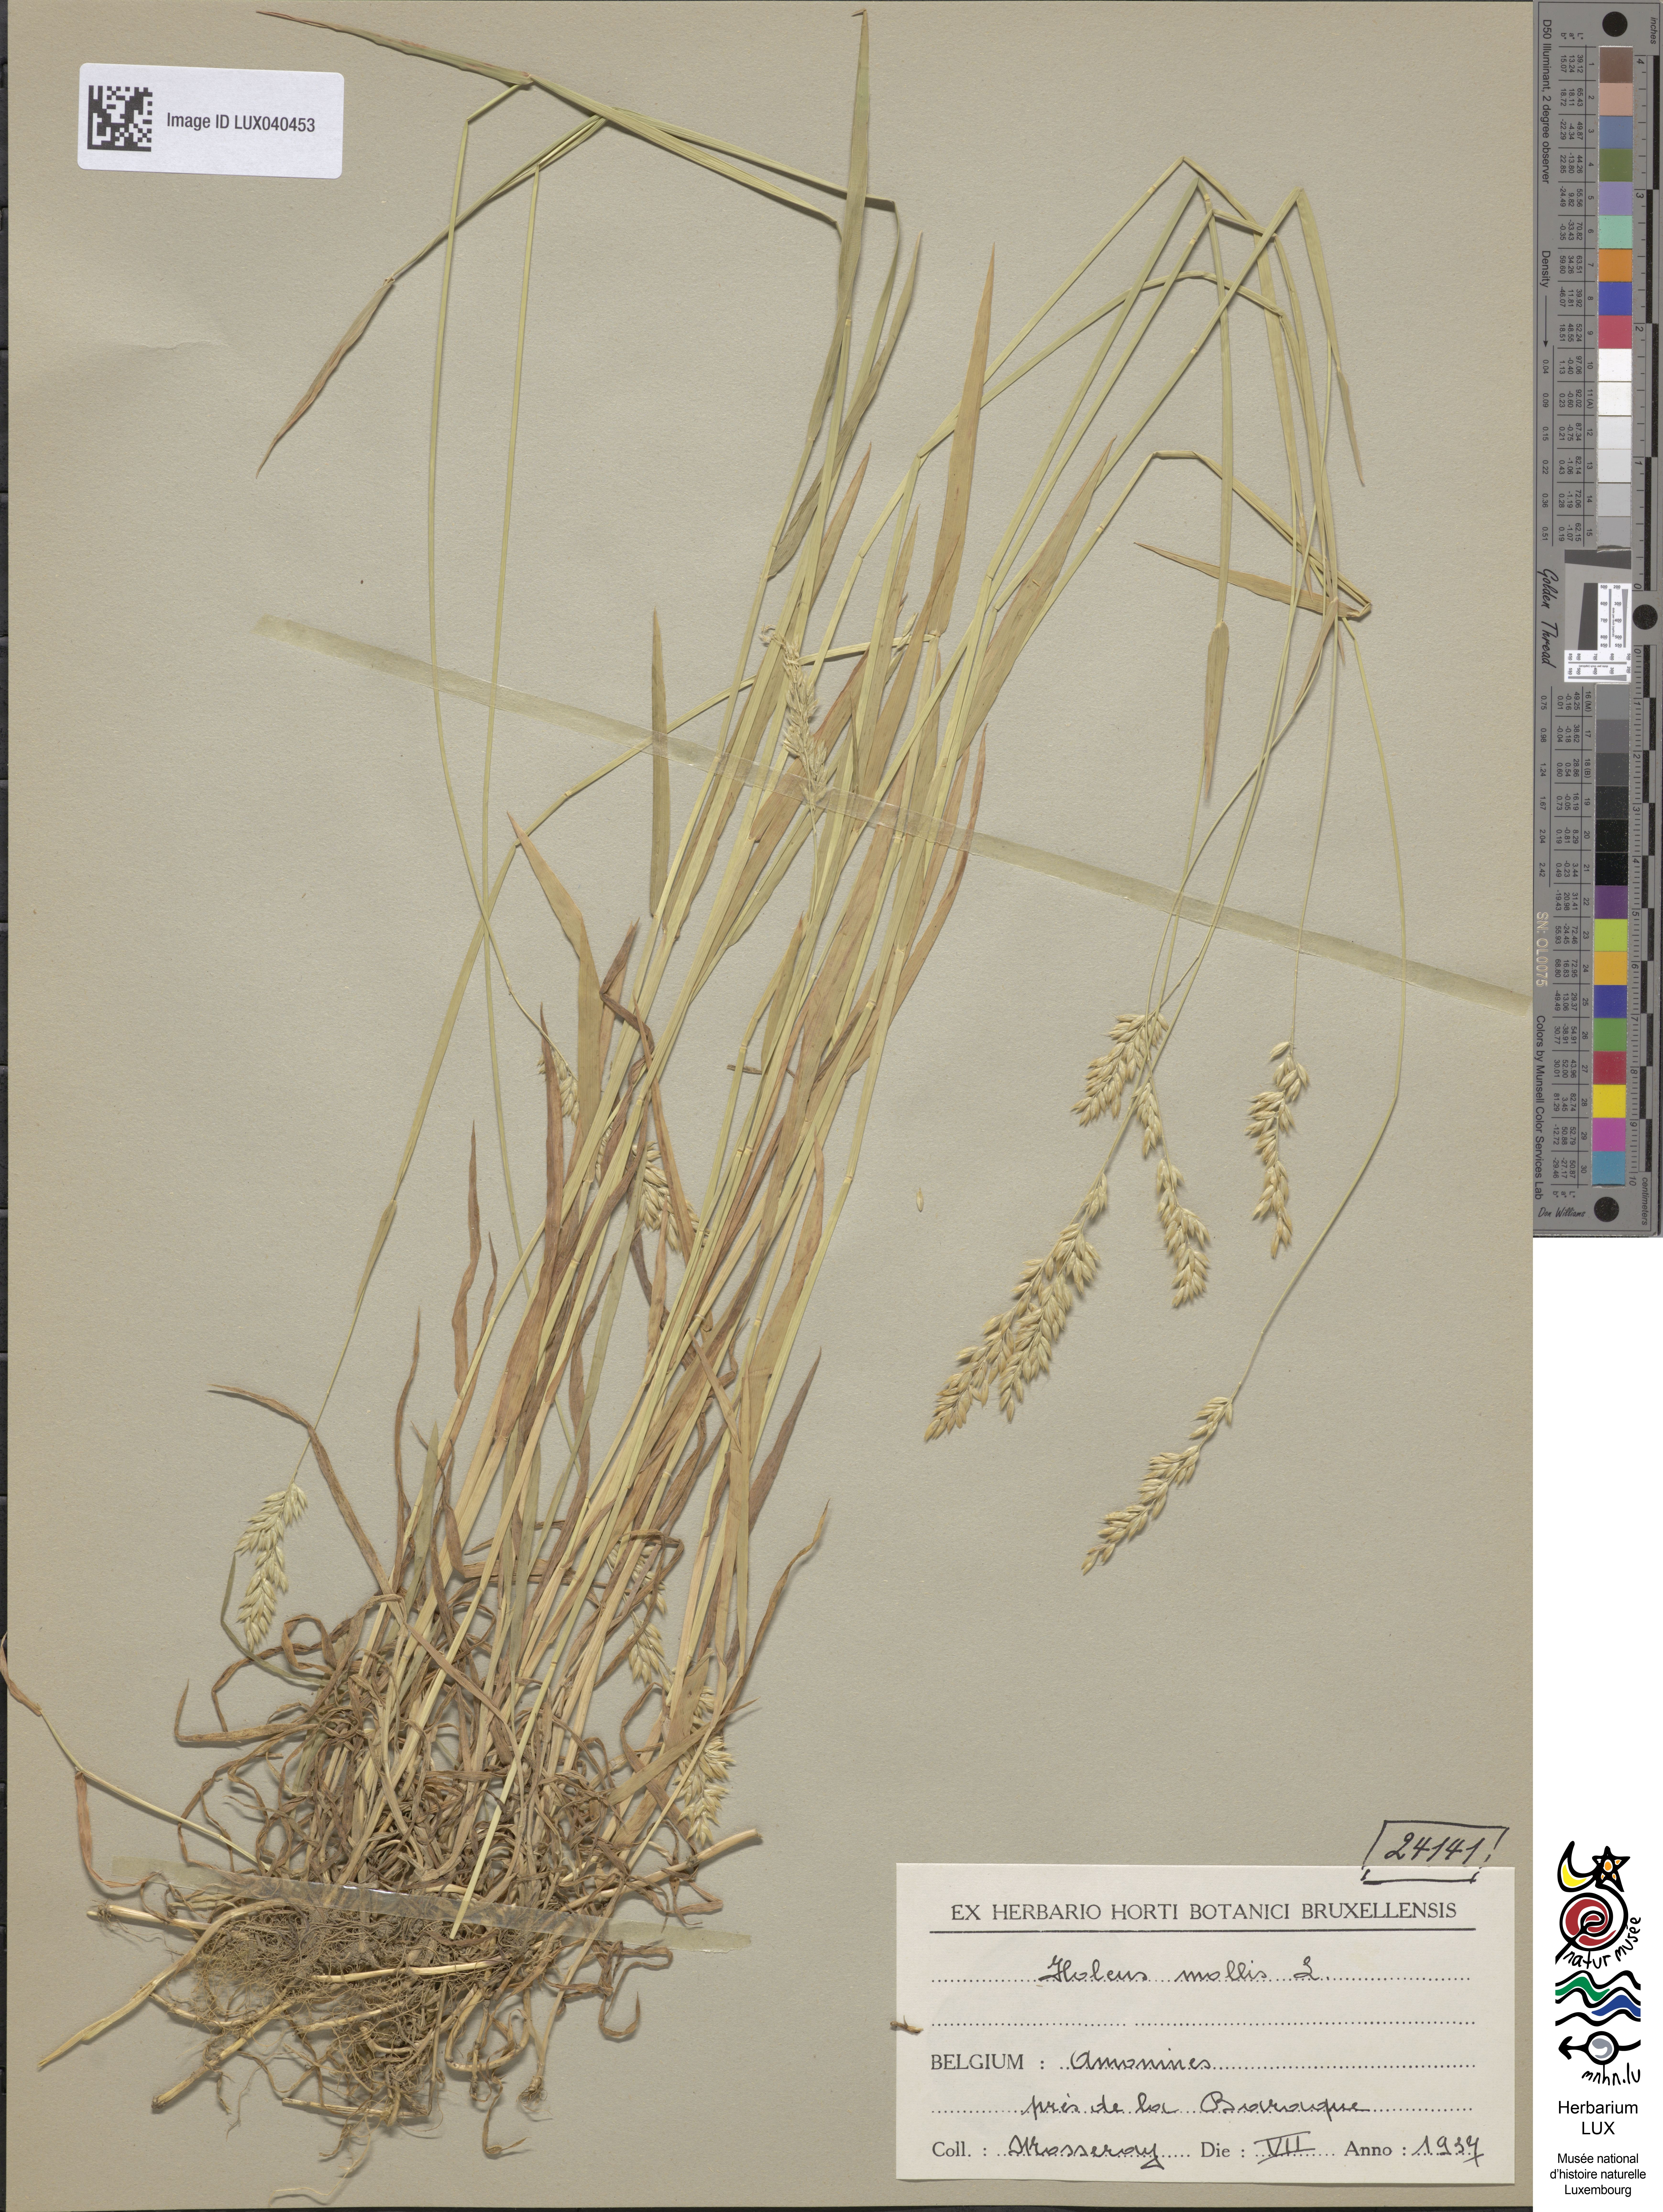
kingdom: Plantae
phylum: Tracheophyta
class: Liliopsida
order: Poales
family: Poaceae
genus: Holcus
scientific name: Holcus mollis
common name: Creeping velvetgrass
